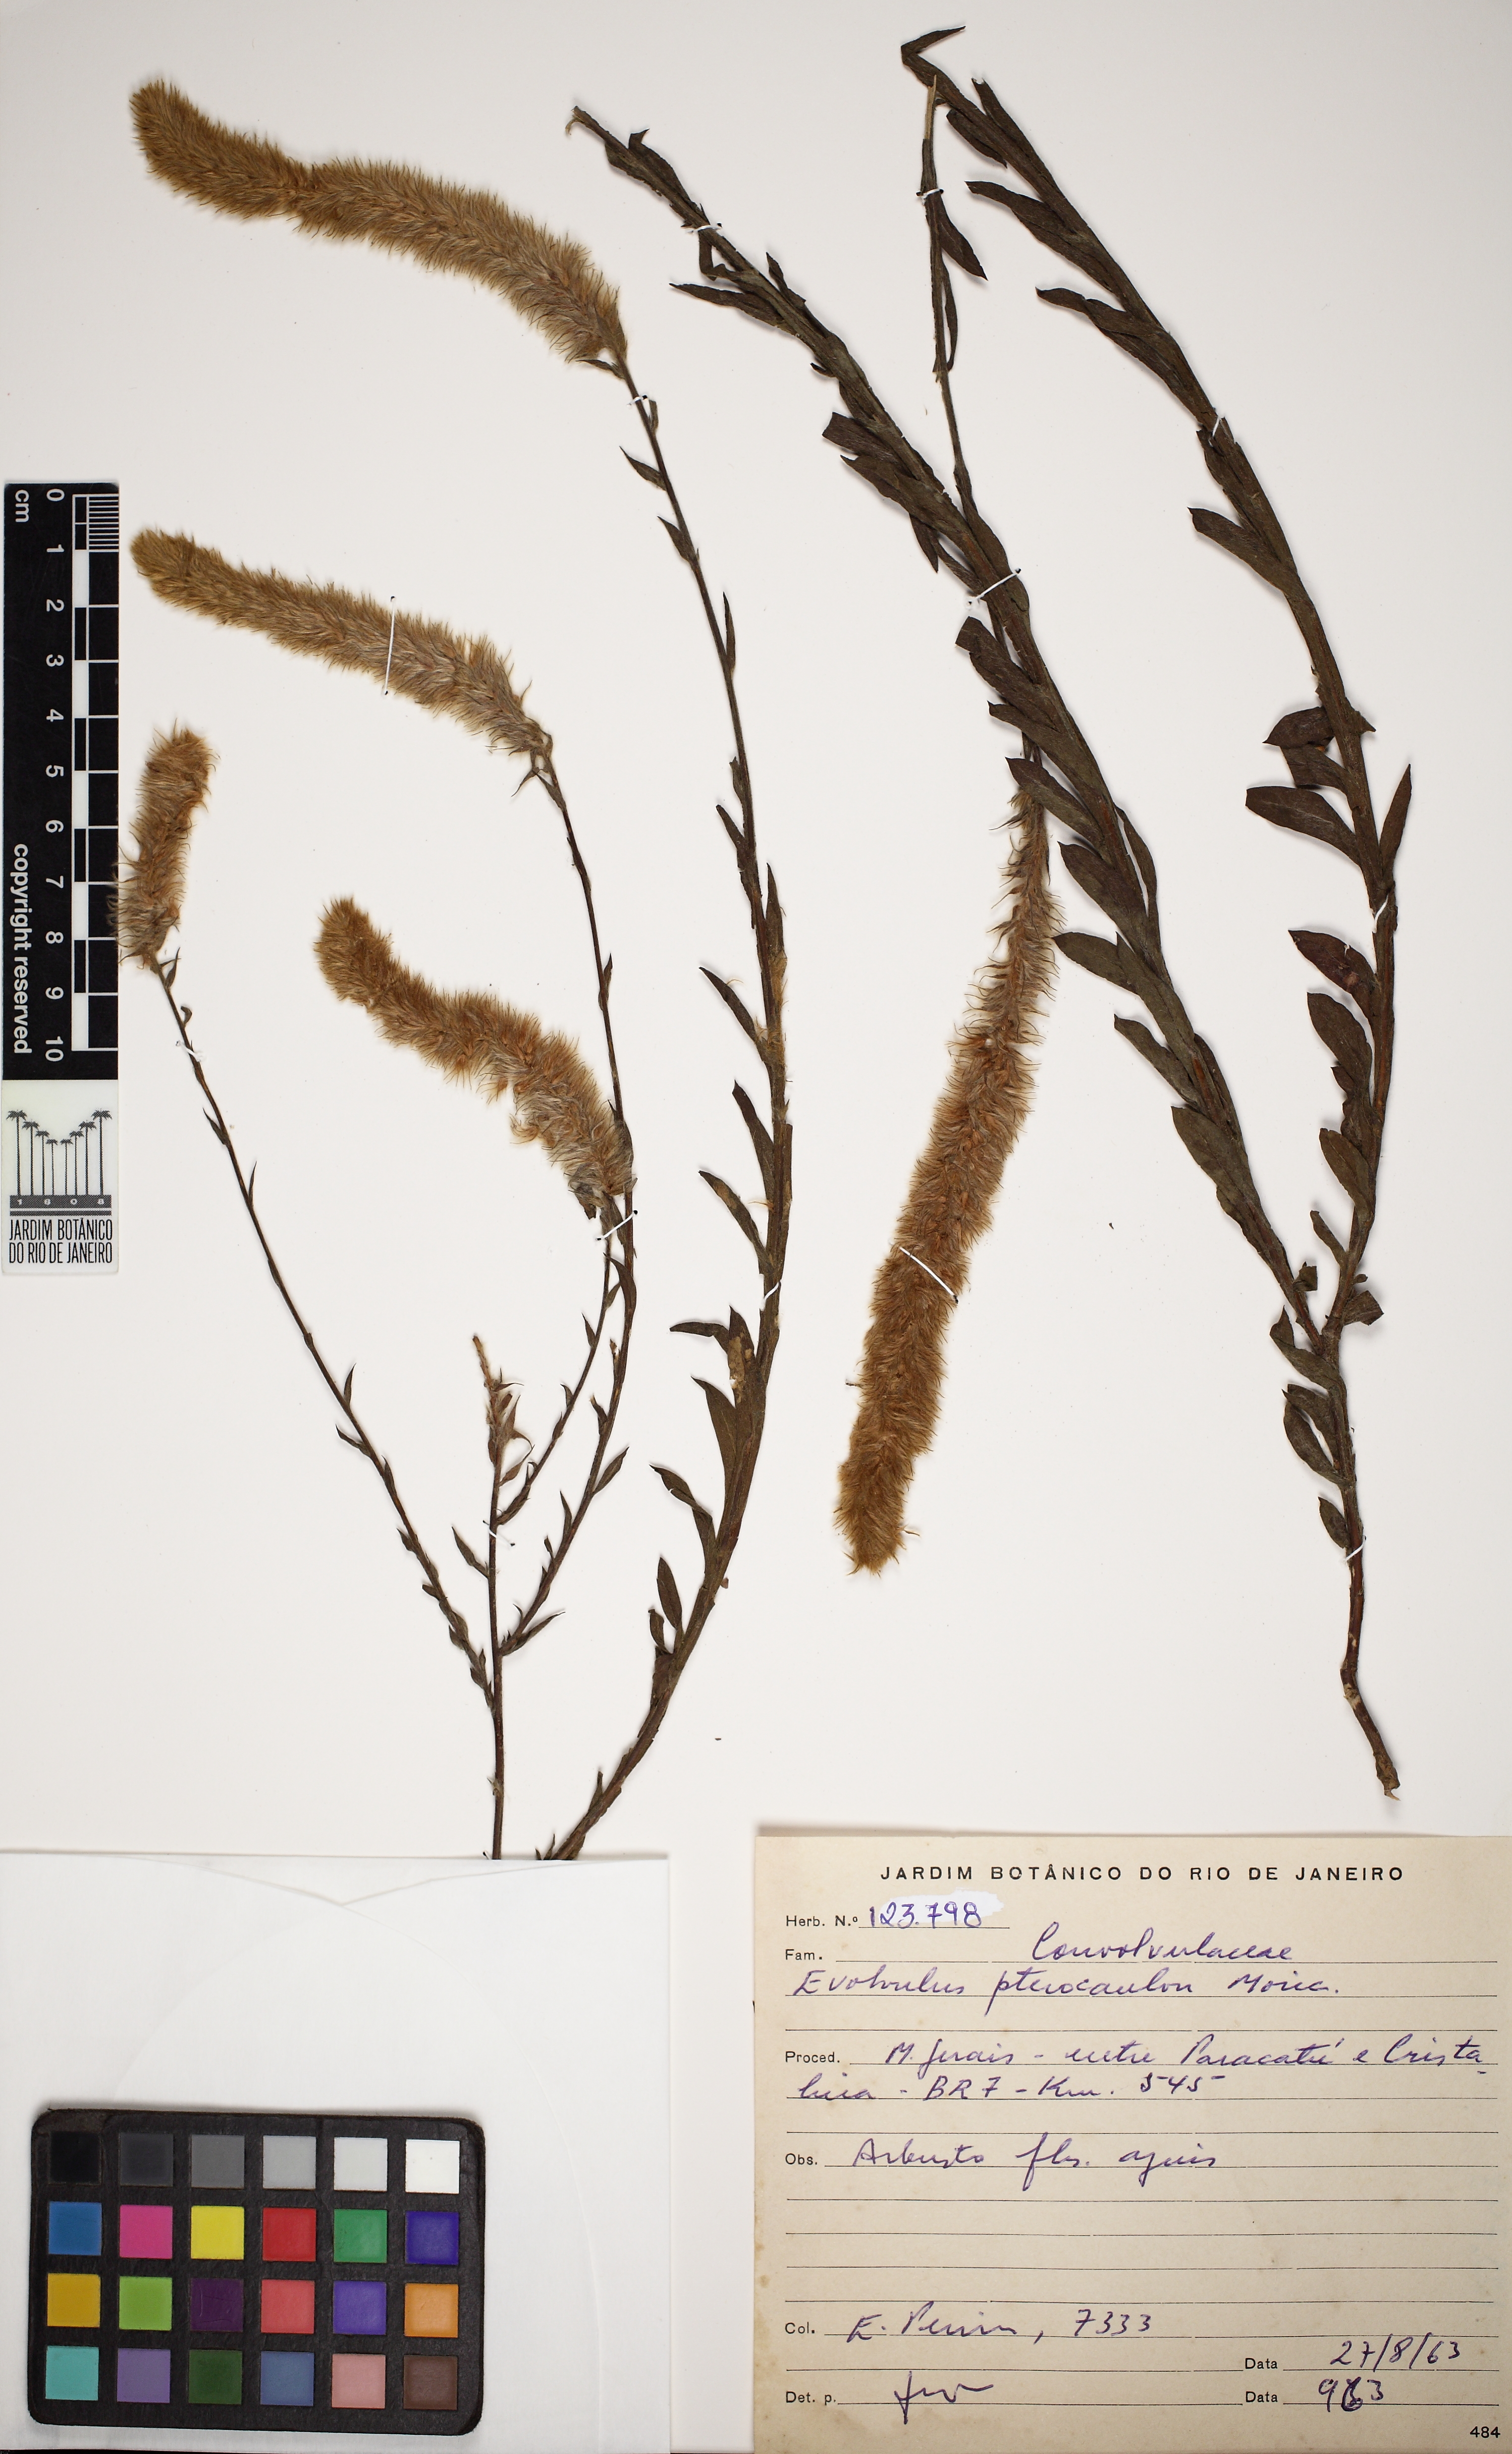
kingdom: Plantae
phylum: Tracheophyta
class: Magnoliopsida
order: Solanales
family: Convolvulaceae
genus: Evolvulus
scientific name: Evolvulus pterocaulon
